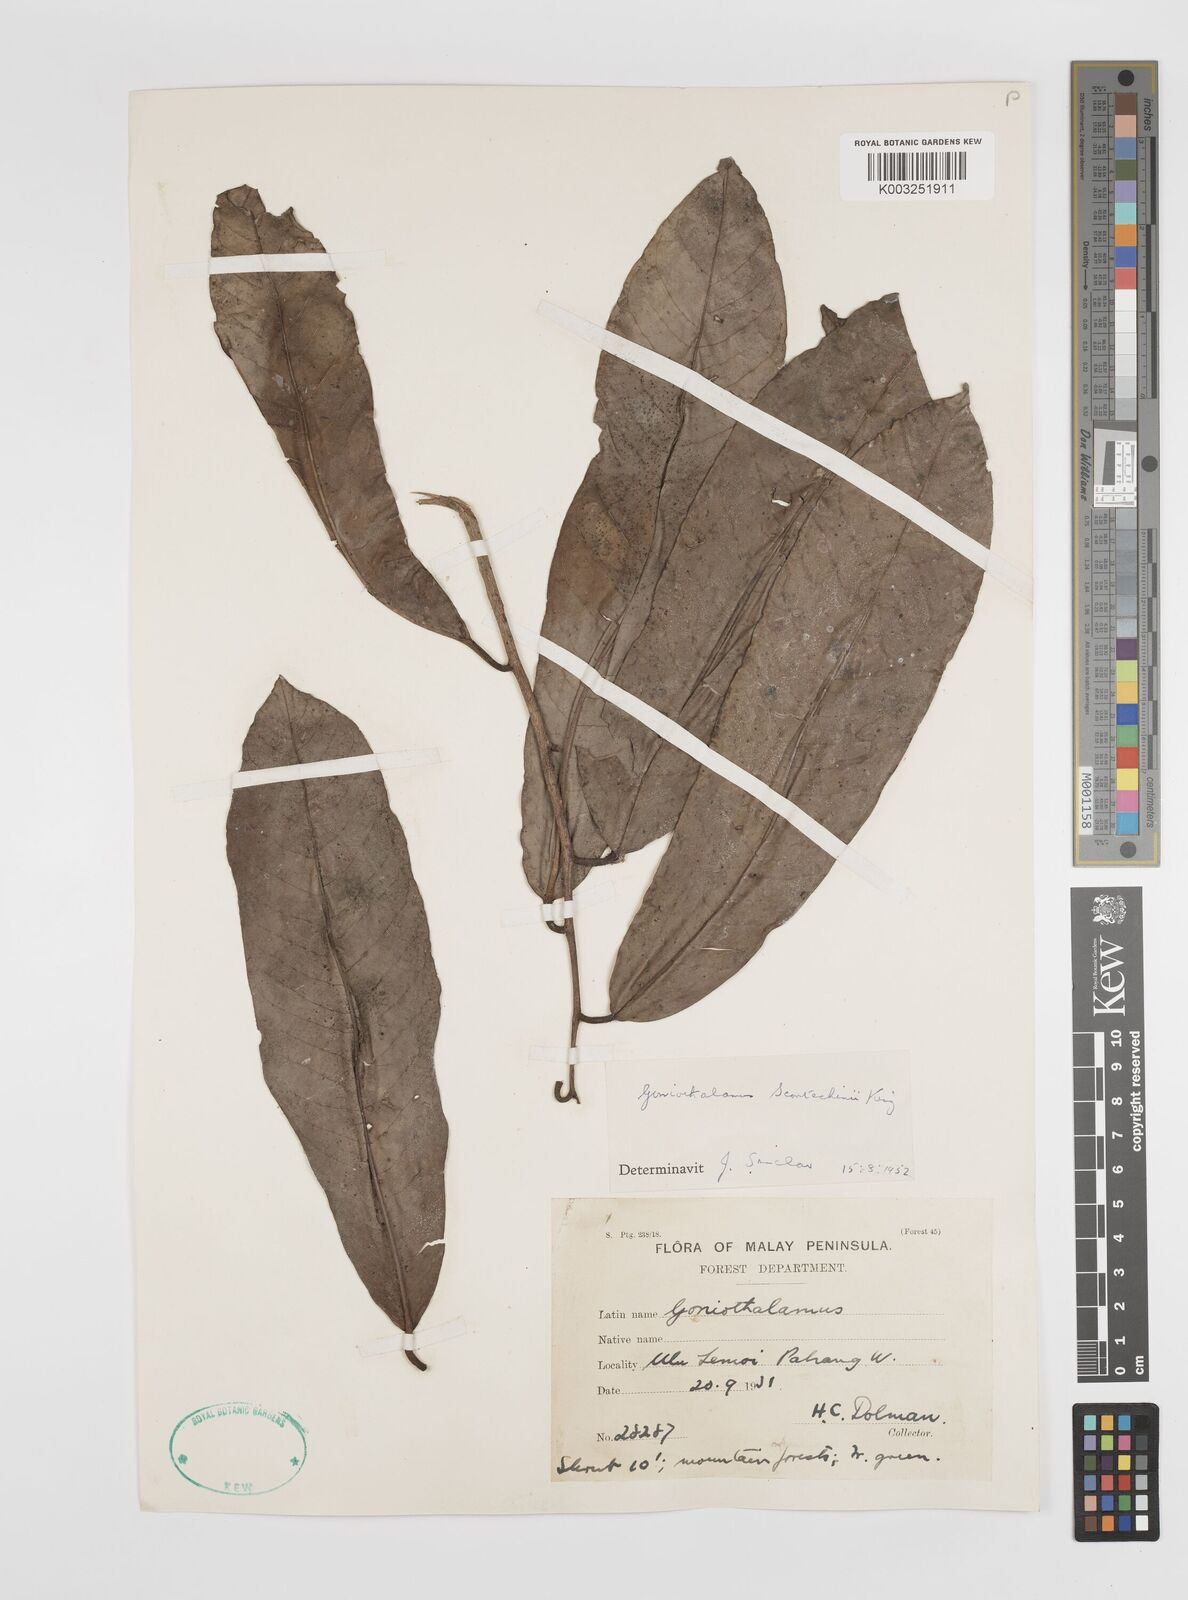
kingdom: Plantae
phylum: Tracheophyta
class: Magnoliopsida
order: Magnoliales
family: Annonaceae
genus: Goniothalamus
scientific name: Goniothalamus scortechinii
